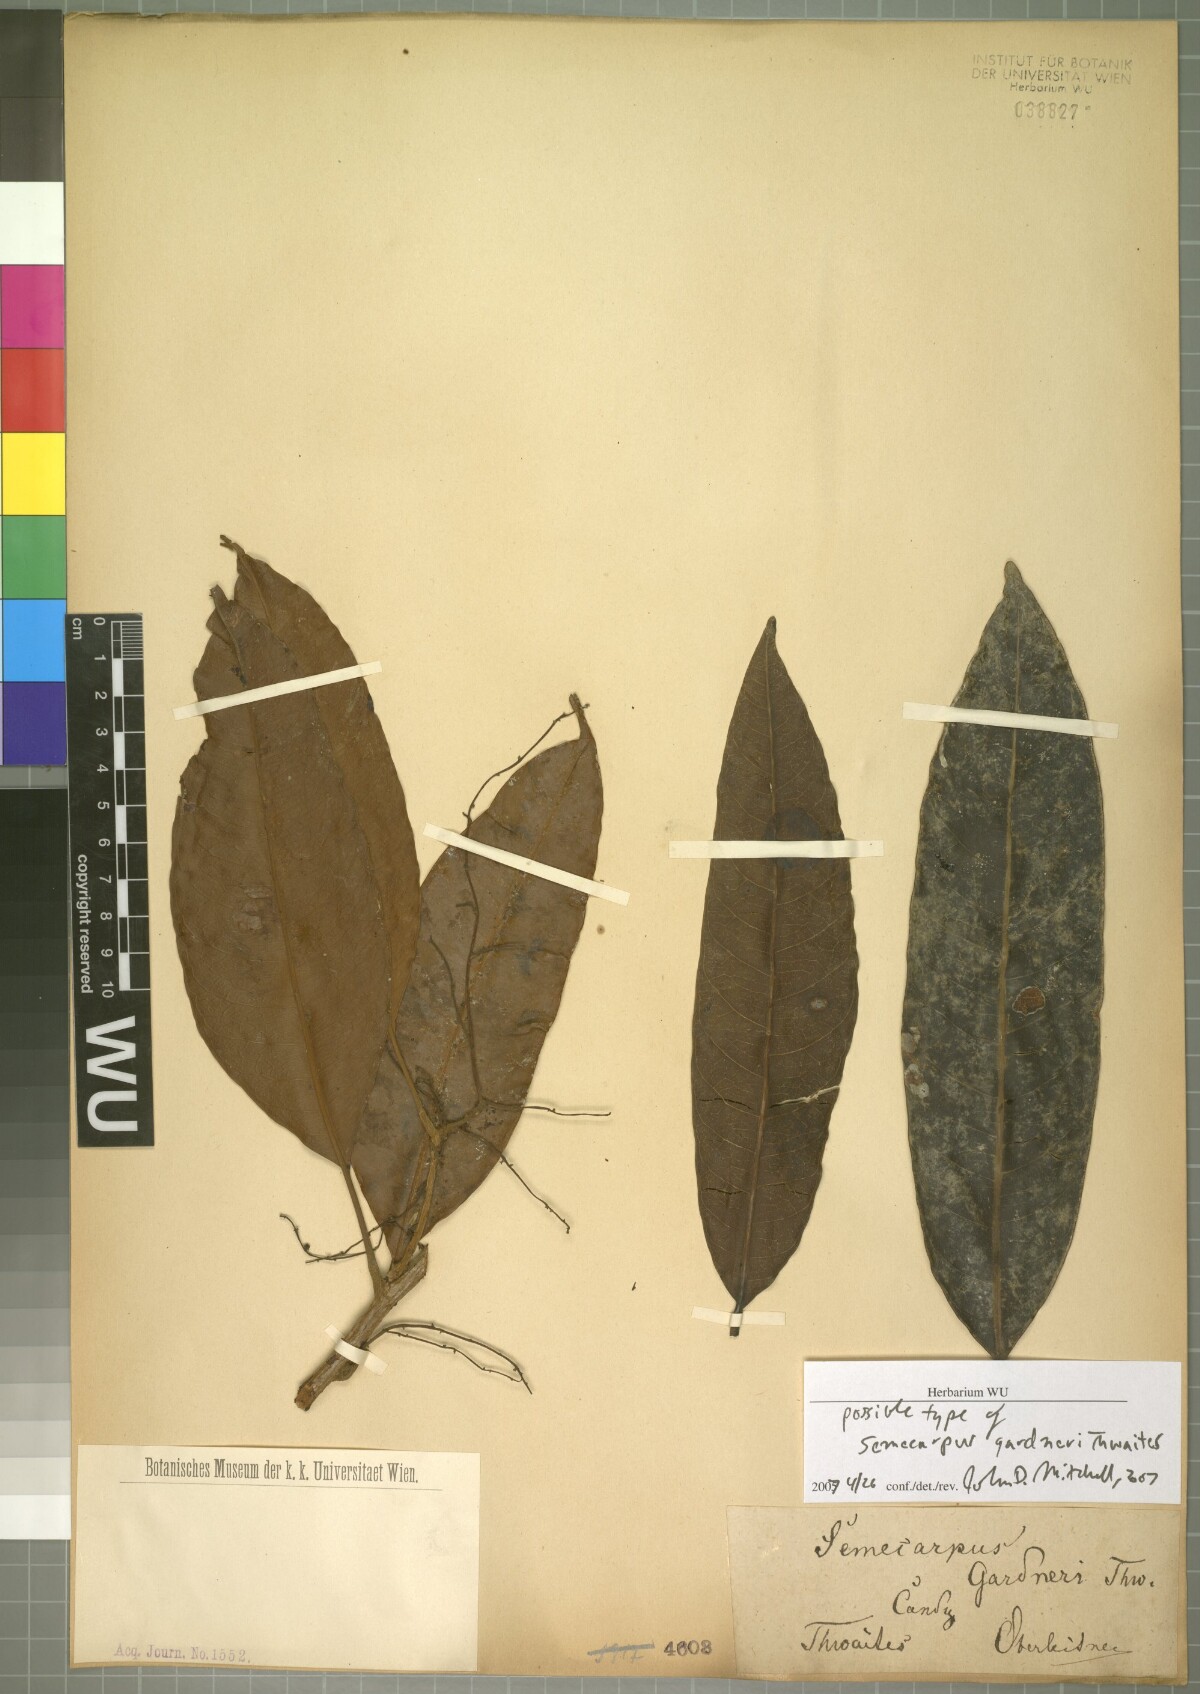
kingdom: Plantae
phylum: Tracheophyta
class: Magnoliopsida
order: Sapindales
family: Anacardiaceae
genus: Semecarpus
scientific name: Semecarpus gardneri
